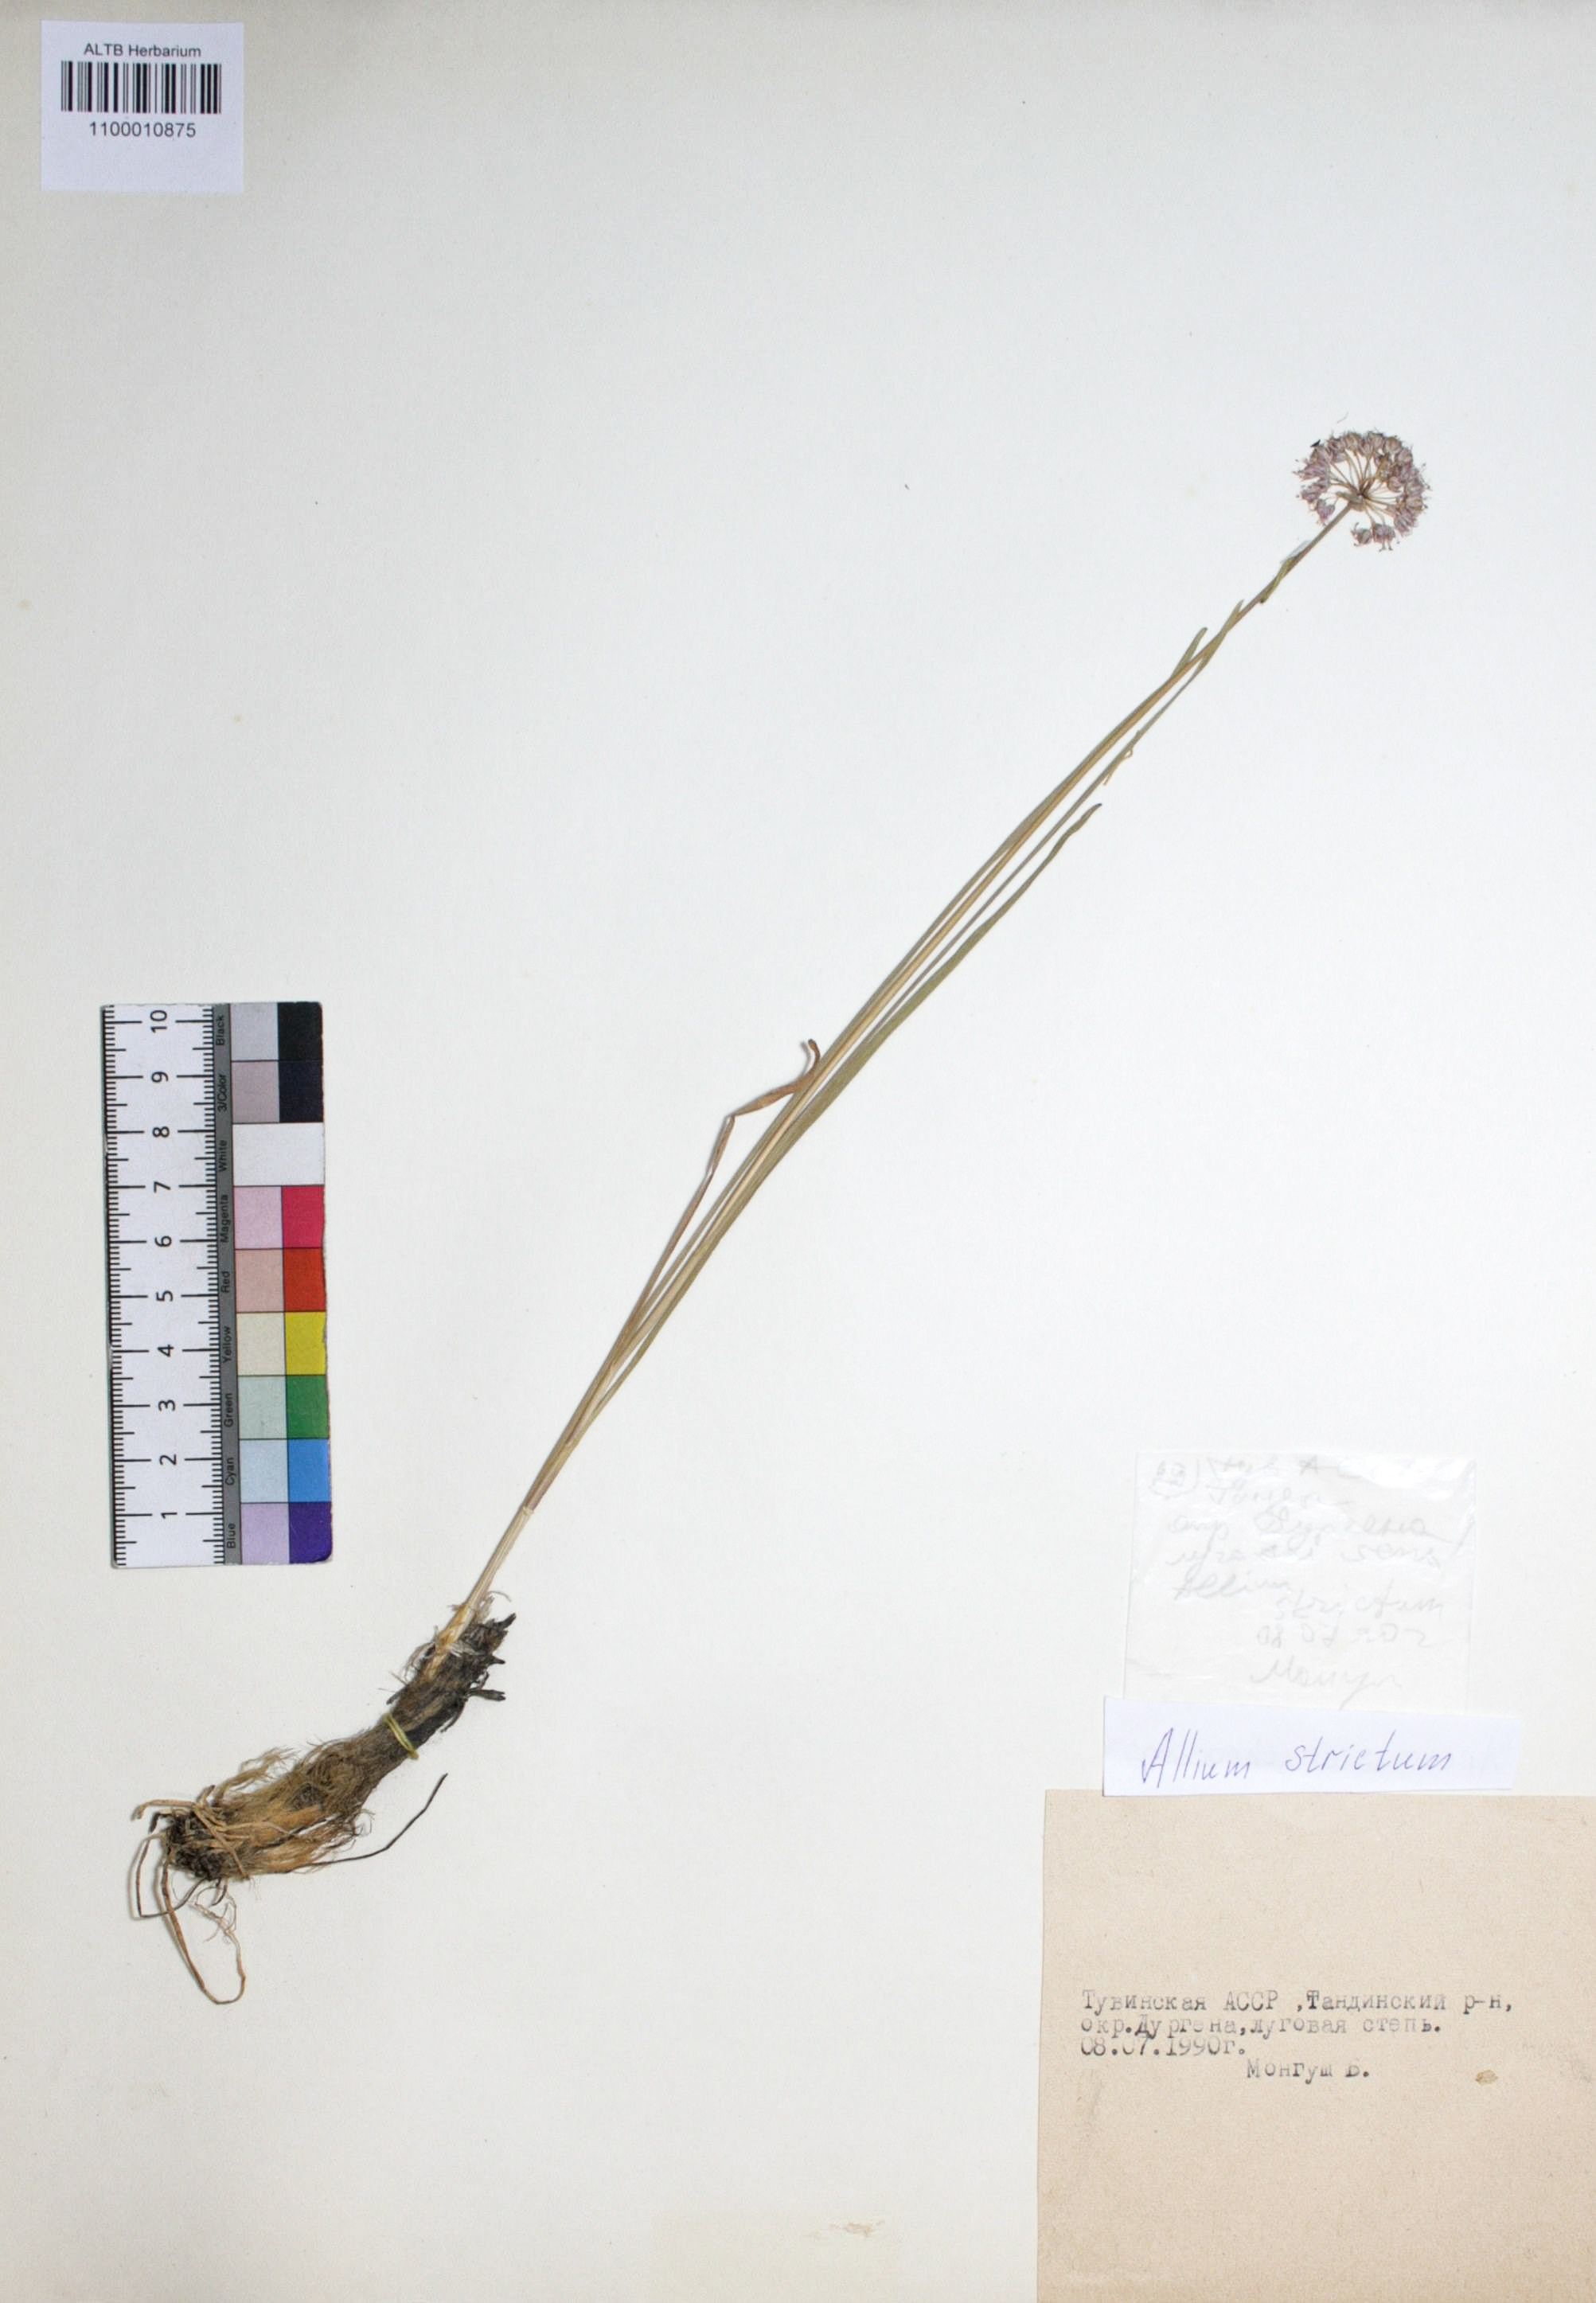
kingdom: Plantae
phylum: Tracheophyta
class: Liliopsida
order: Asparagales
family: Amaryllidaceae
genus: Allium
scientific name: Allium strictum
